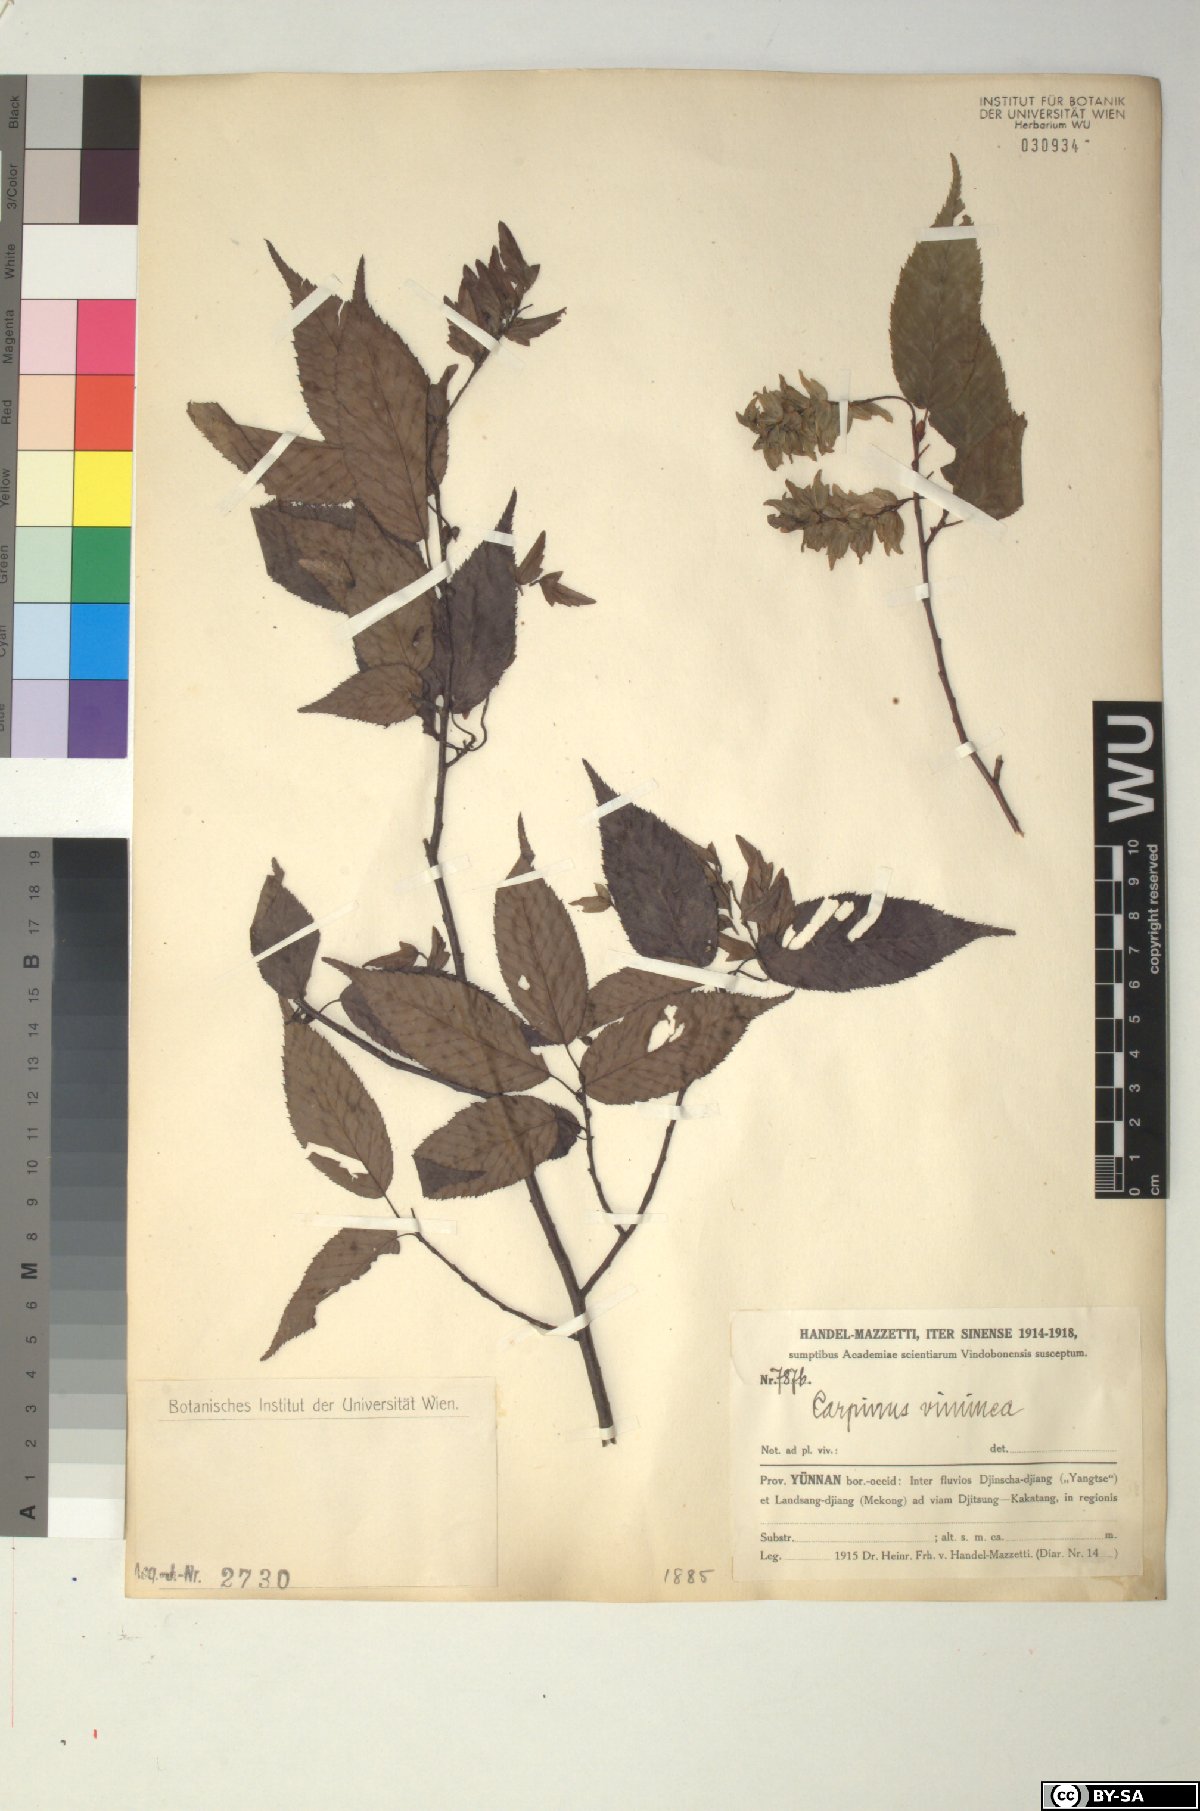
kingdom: Plantae
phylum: Tracheophyta
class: Magnoliopsida
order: Fagales
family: Betulaceae
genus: Carpinus
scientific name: Carpinus viminea
